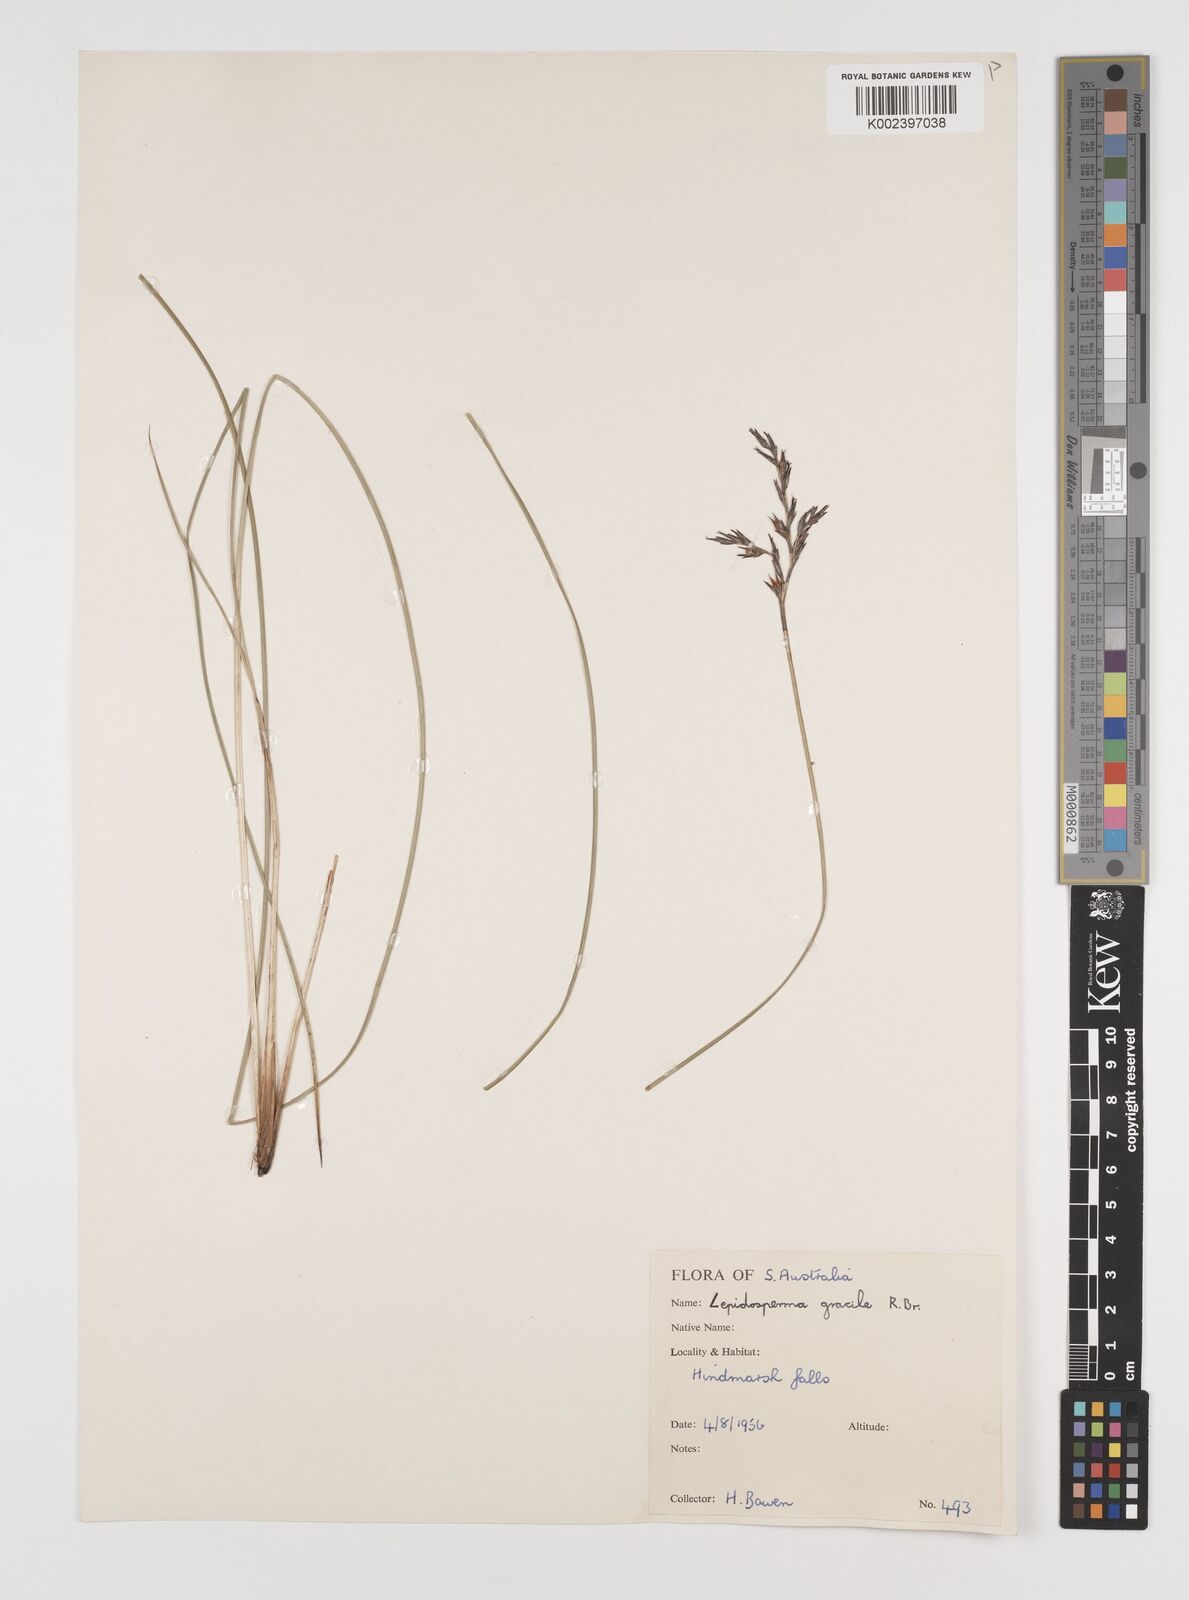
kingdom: Plantae
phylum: Tracheophyta
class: Liliopsida
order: Poales
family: Cyperaceae
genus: Lepidosperma
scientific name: Lepidosperma semiteres
